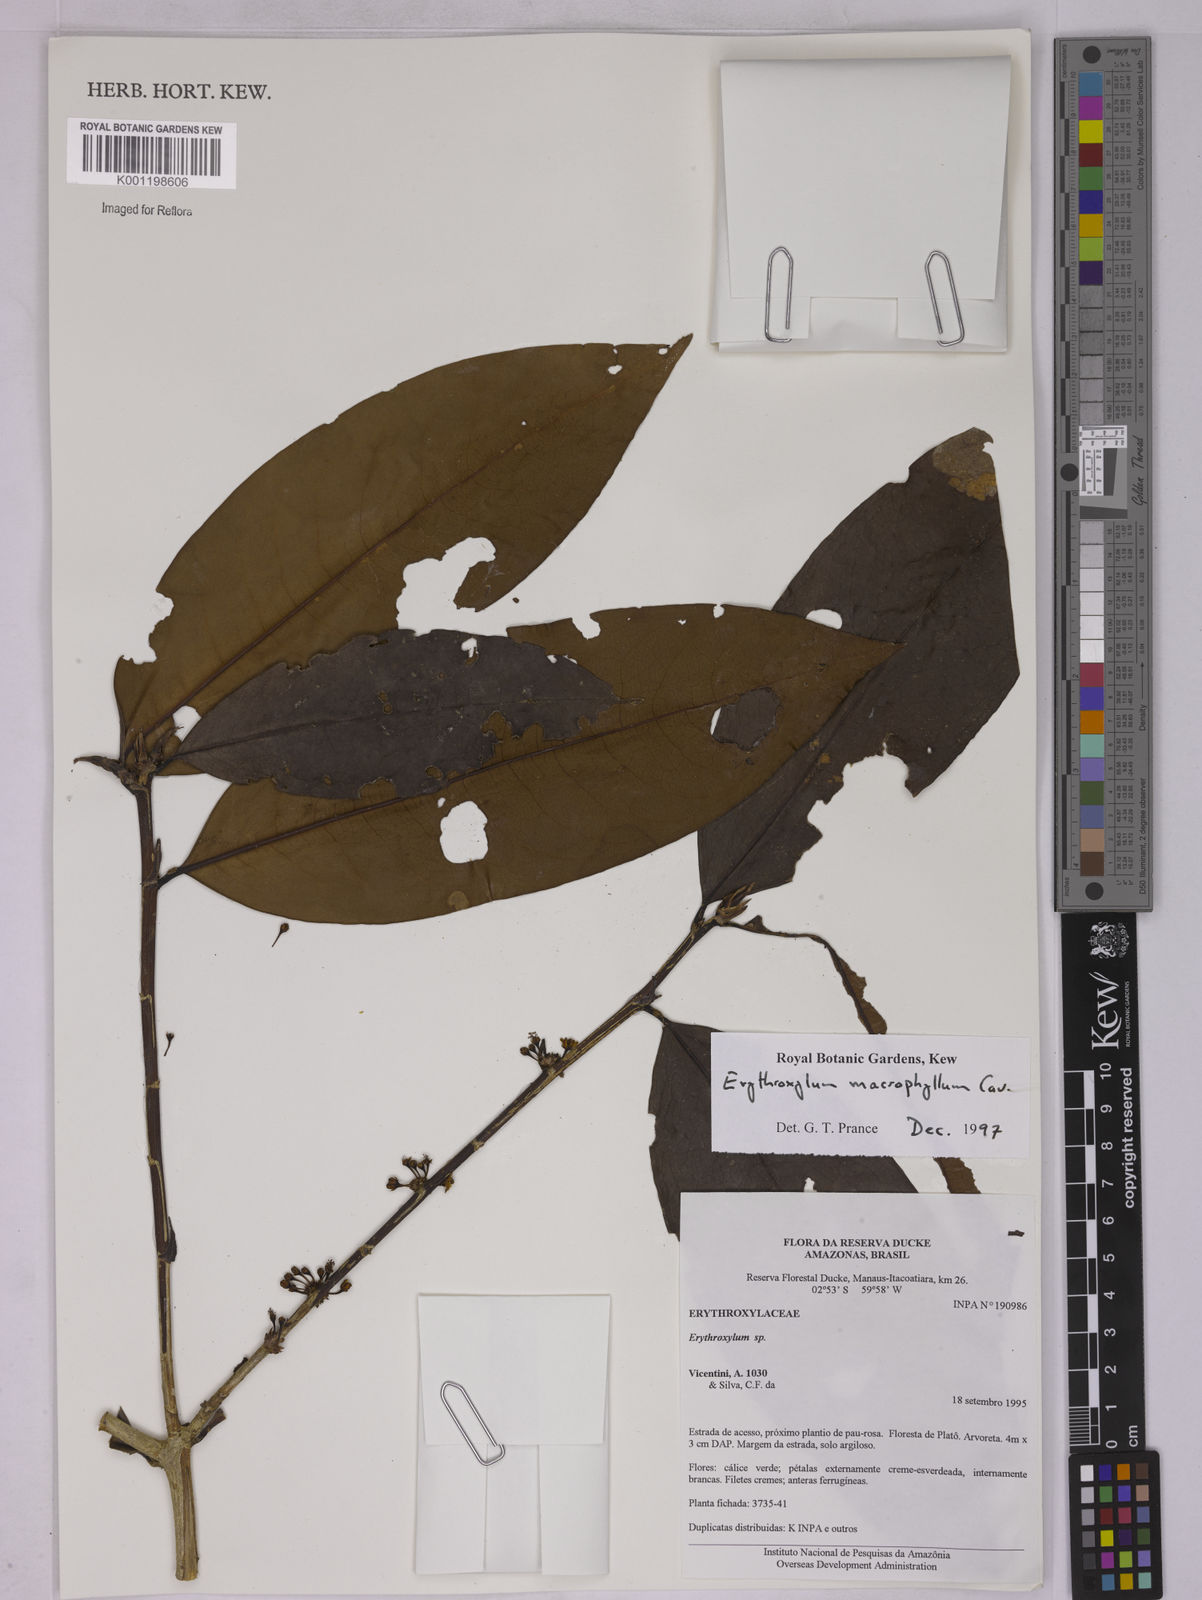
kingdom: Plantae
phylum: Tracheophyta
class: Magnoliopsida
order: Malpighiales
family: Erythroxylaceae
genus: Erythroxylum
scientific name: Erythroxylum macrophyllum
